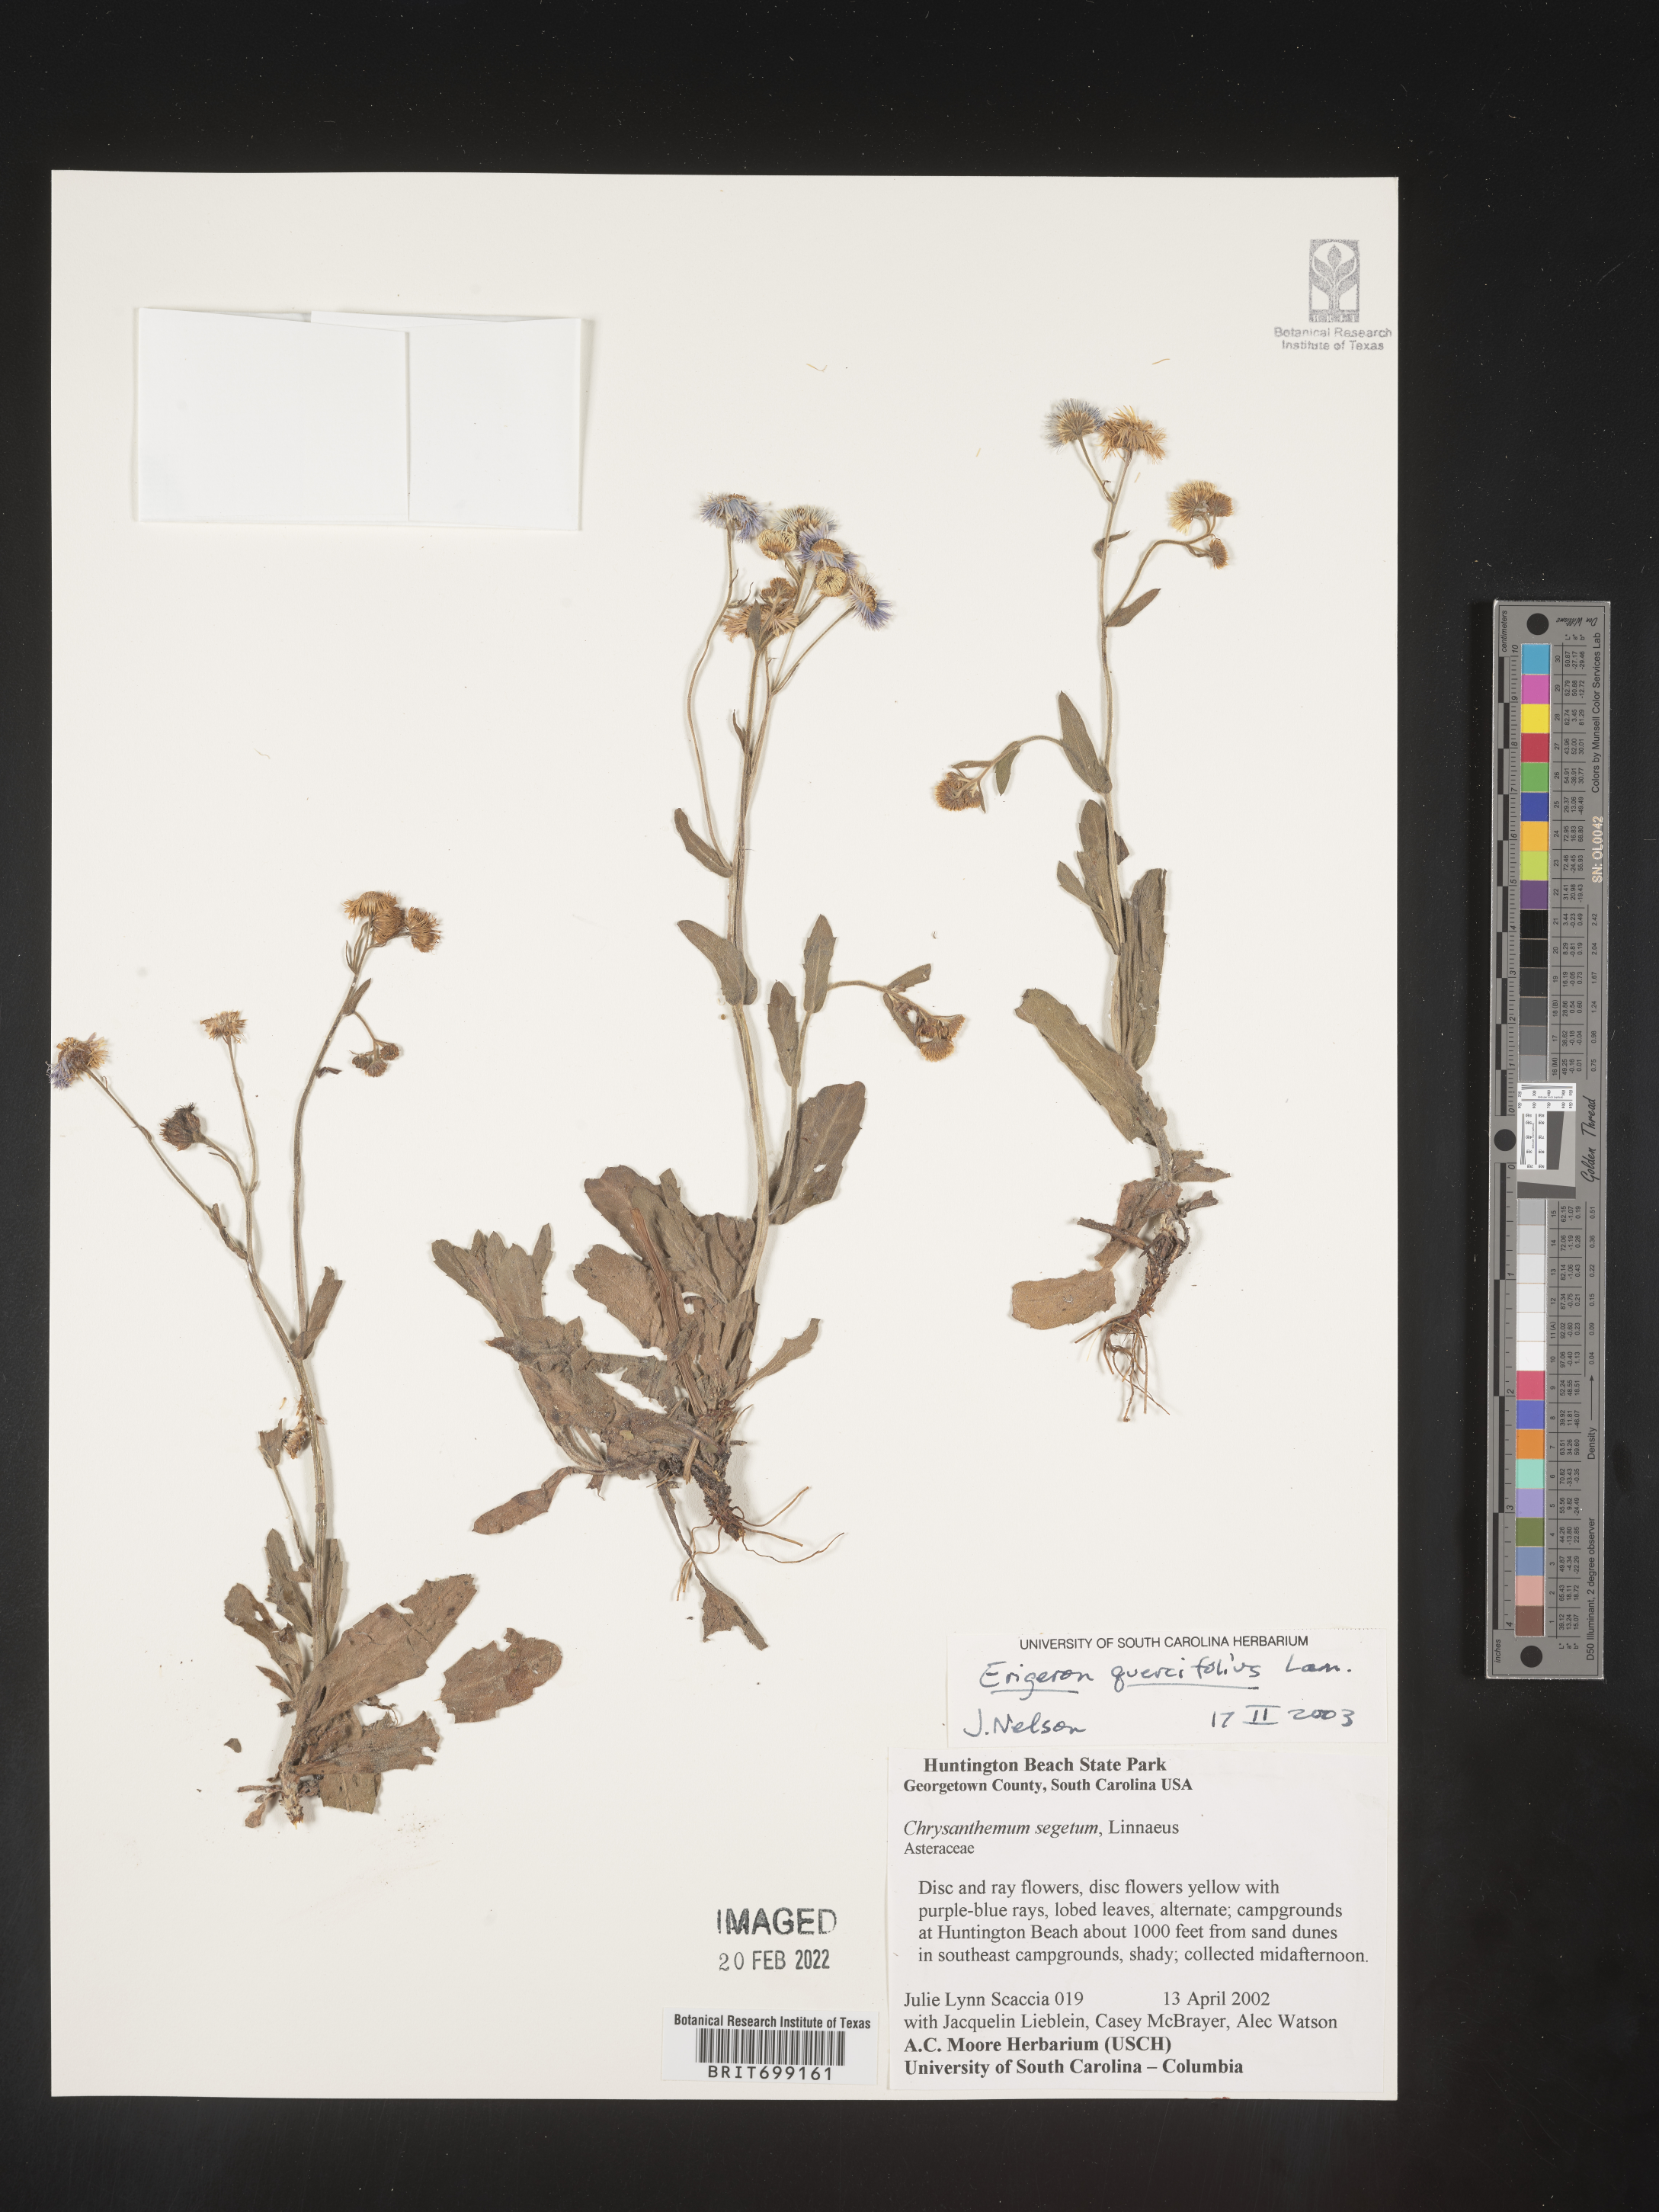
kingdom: Plantae
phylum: Tracheophyta
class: Magnoliopsida
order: Asterales
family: Asteraceae
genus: Erigeron
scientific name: Erigeron quercifolius
